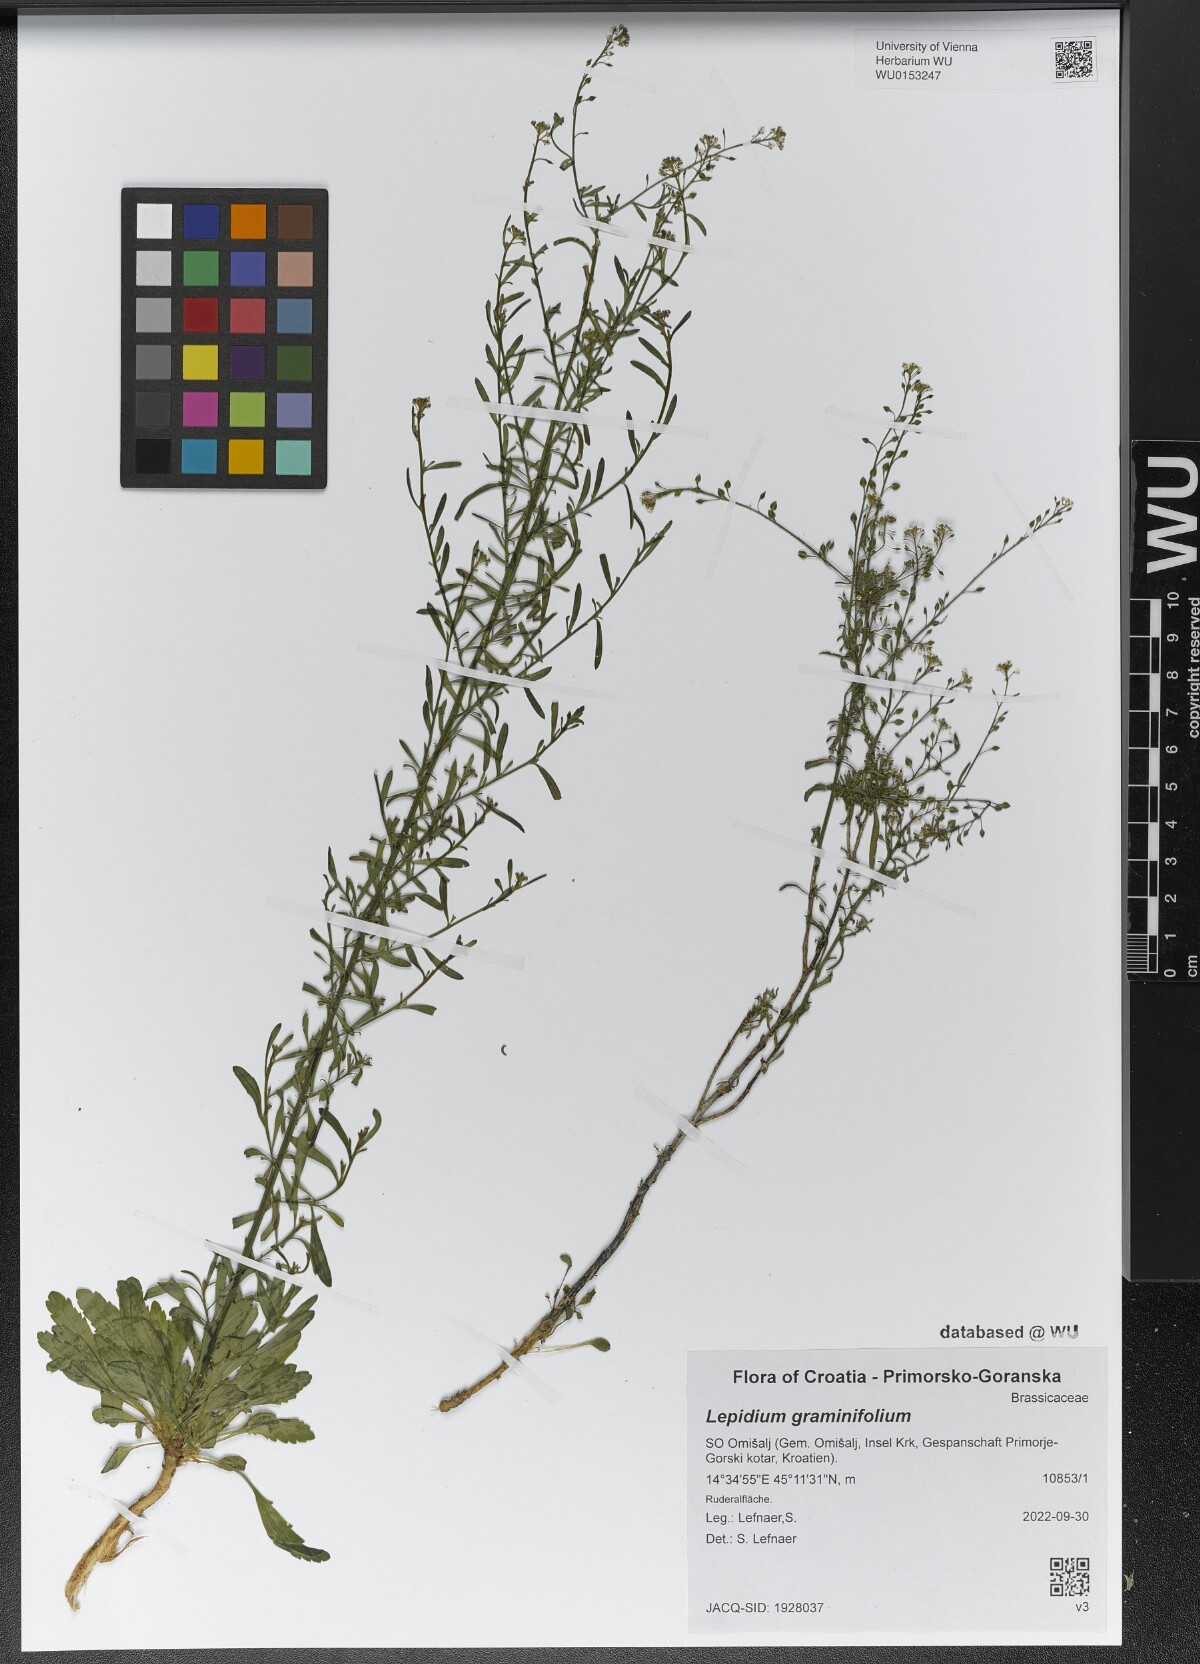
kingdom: Plantae
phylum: Tracheophyta
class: Magnoliopsida
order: Brassicales
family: Brassicaceae
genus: Lepidium
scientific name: Lepidium graminifolium
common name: Tall pepperwort
